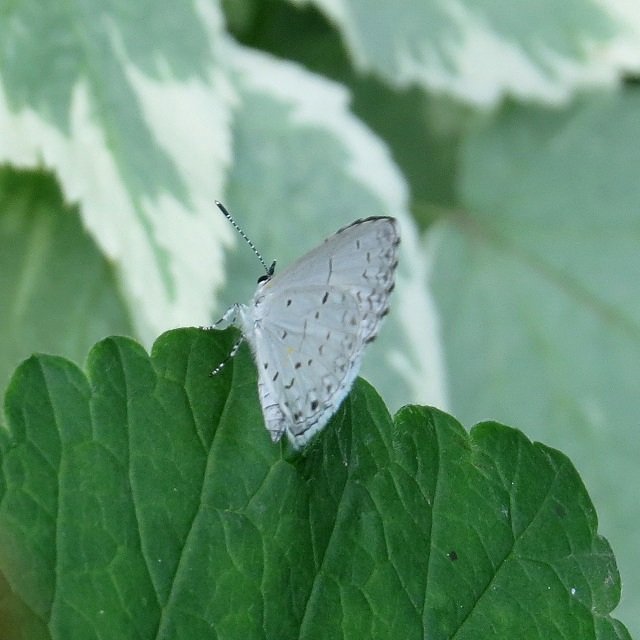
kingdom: Animalia
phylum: Arthropoda
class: Insecta
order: Lepidoptera
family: Lycaenidae
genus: Celastrina
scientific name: Celastrina
